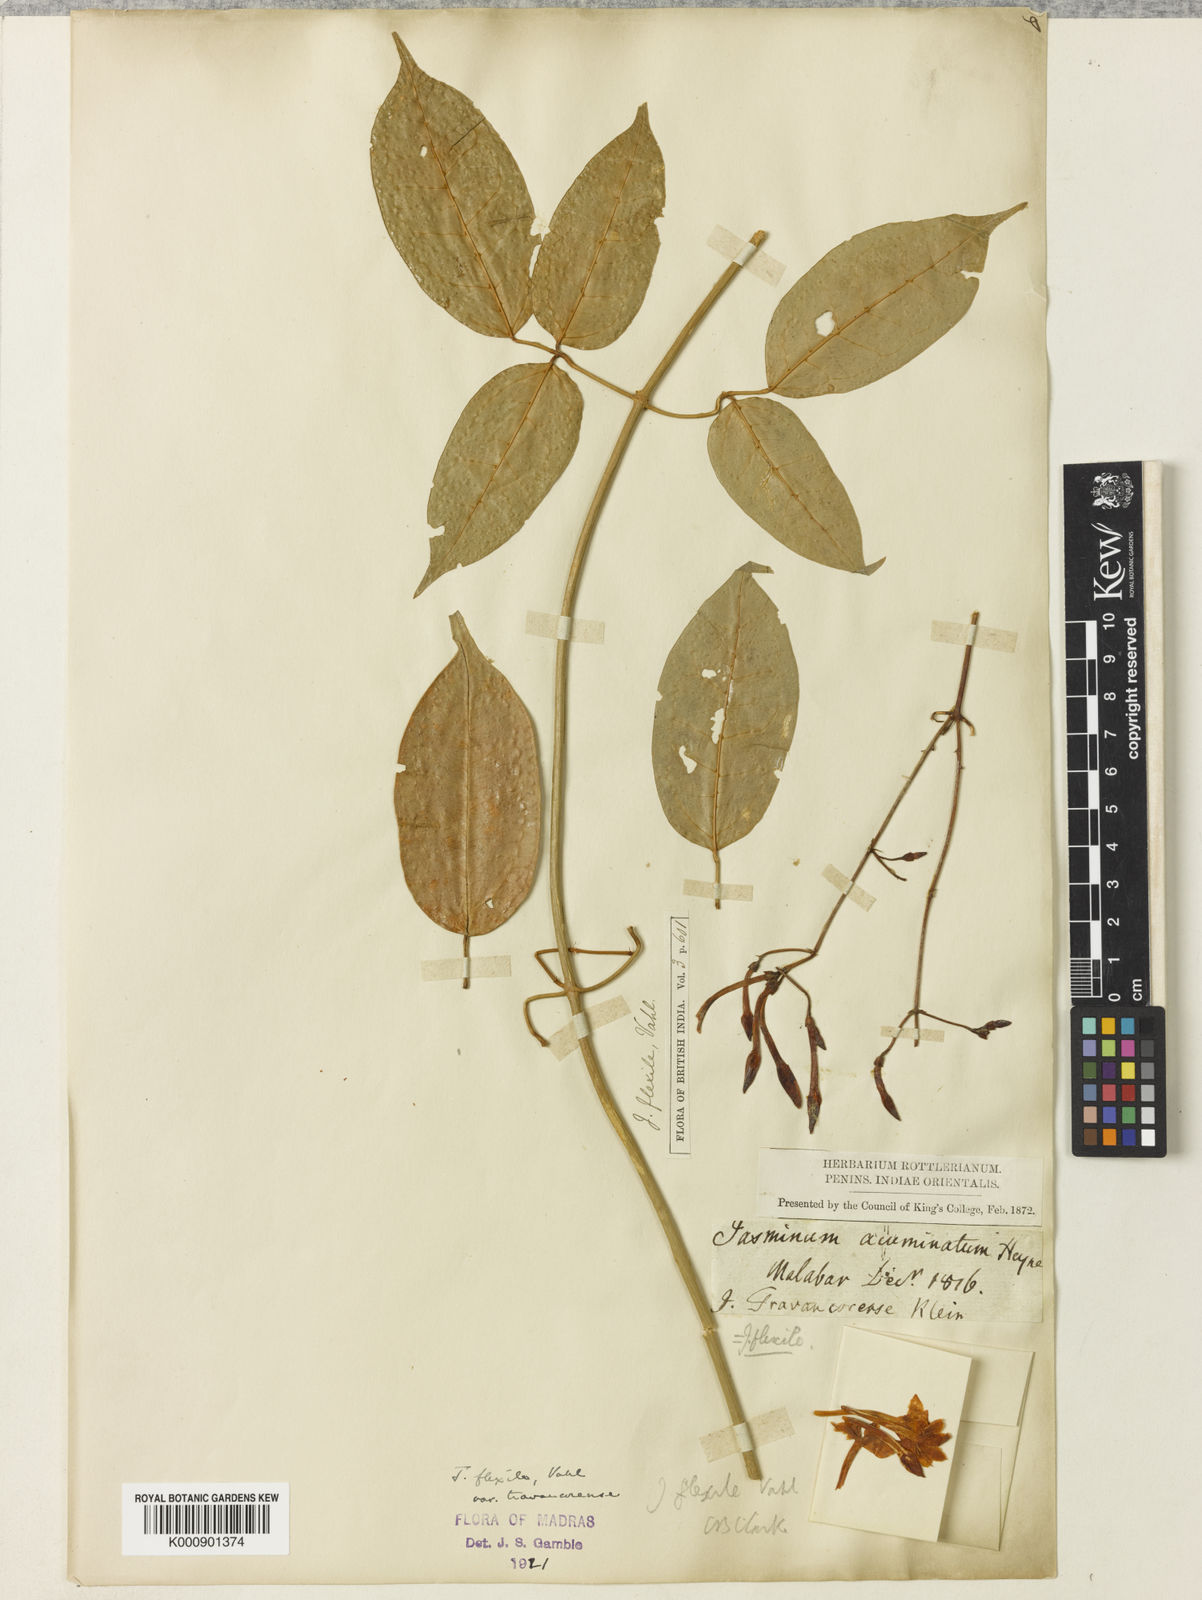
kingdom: Plantae
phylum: Tracheophyta
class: Magnoliopsida
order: Lamiales
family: Oleaceae
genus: Jasminum
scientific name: Jasminum flexile
